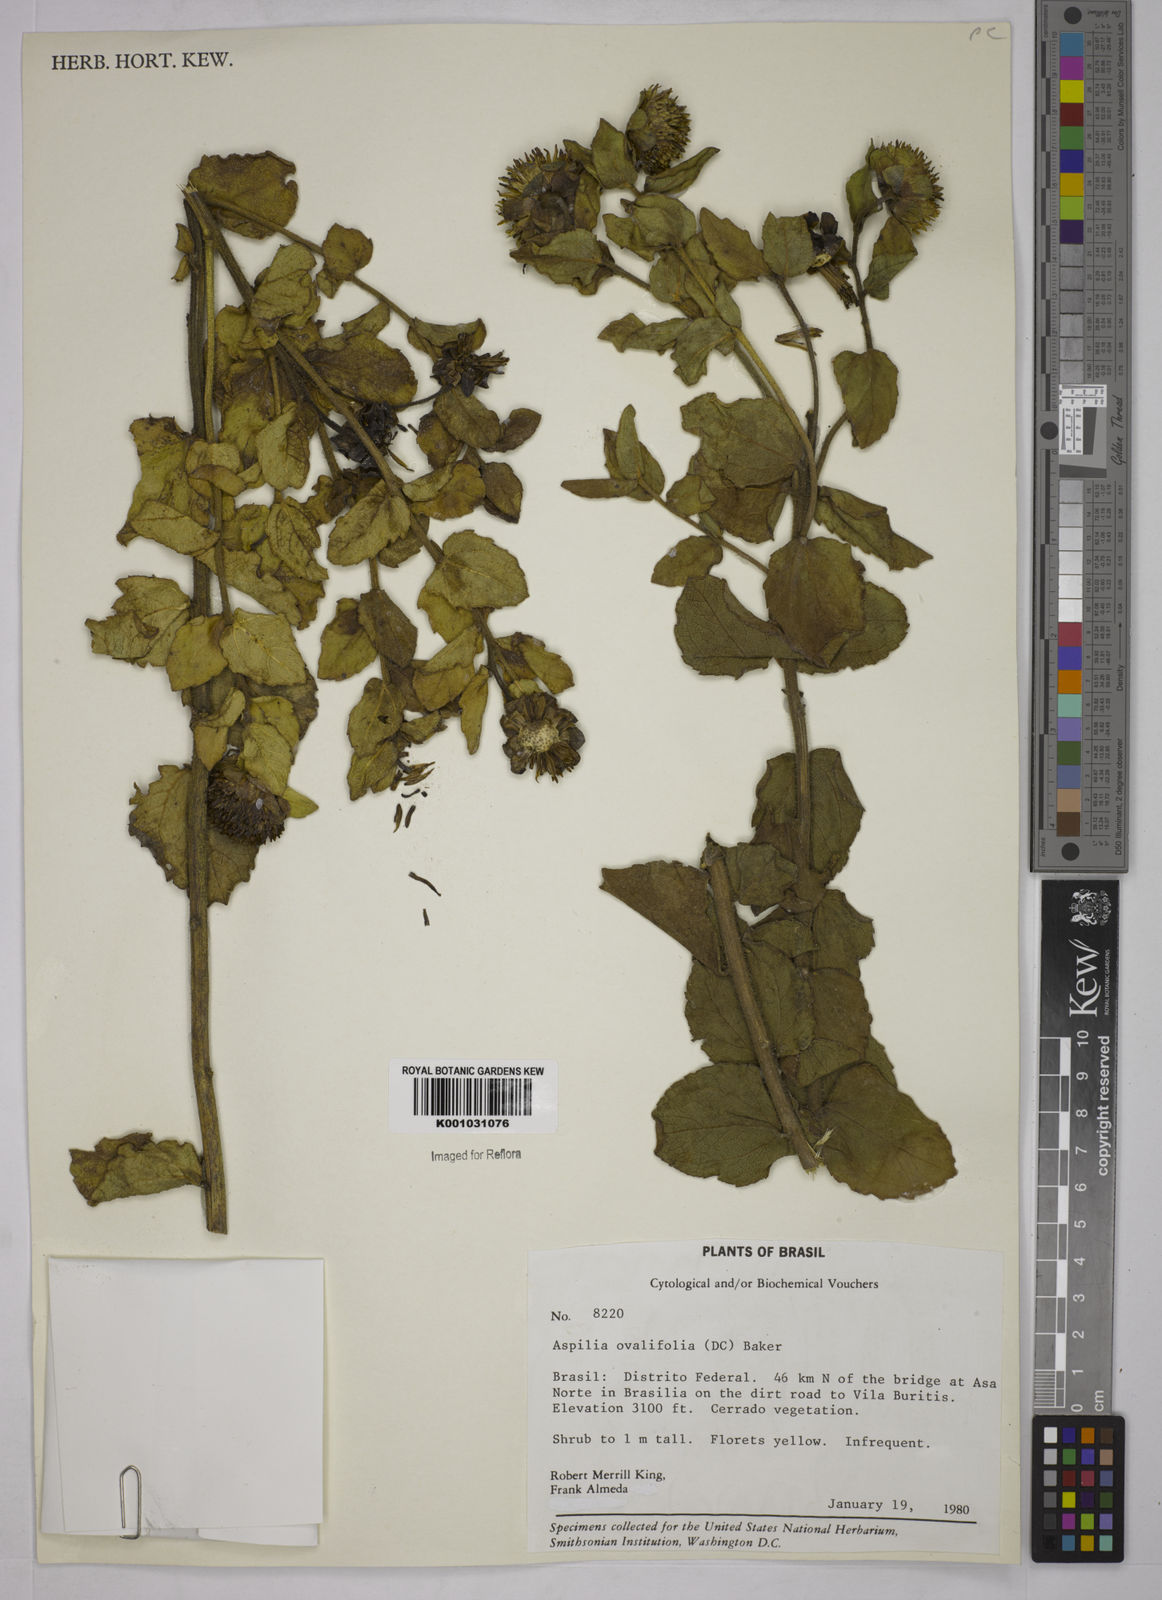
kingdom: Plantae
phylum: Tracheophyta
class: Magnoliopsida
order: Asterales
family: Asteraceae
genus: Wedelia
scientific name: Wedelia ovalifolia
